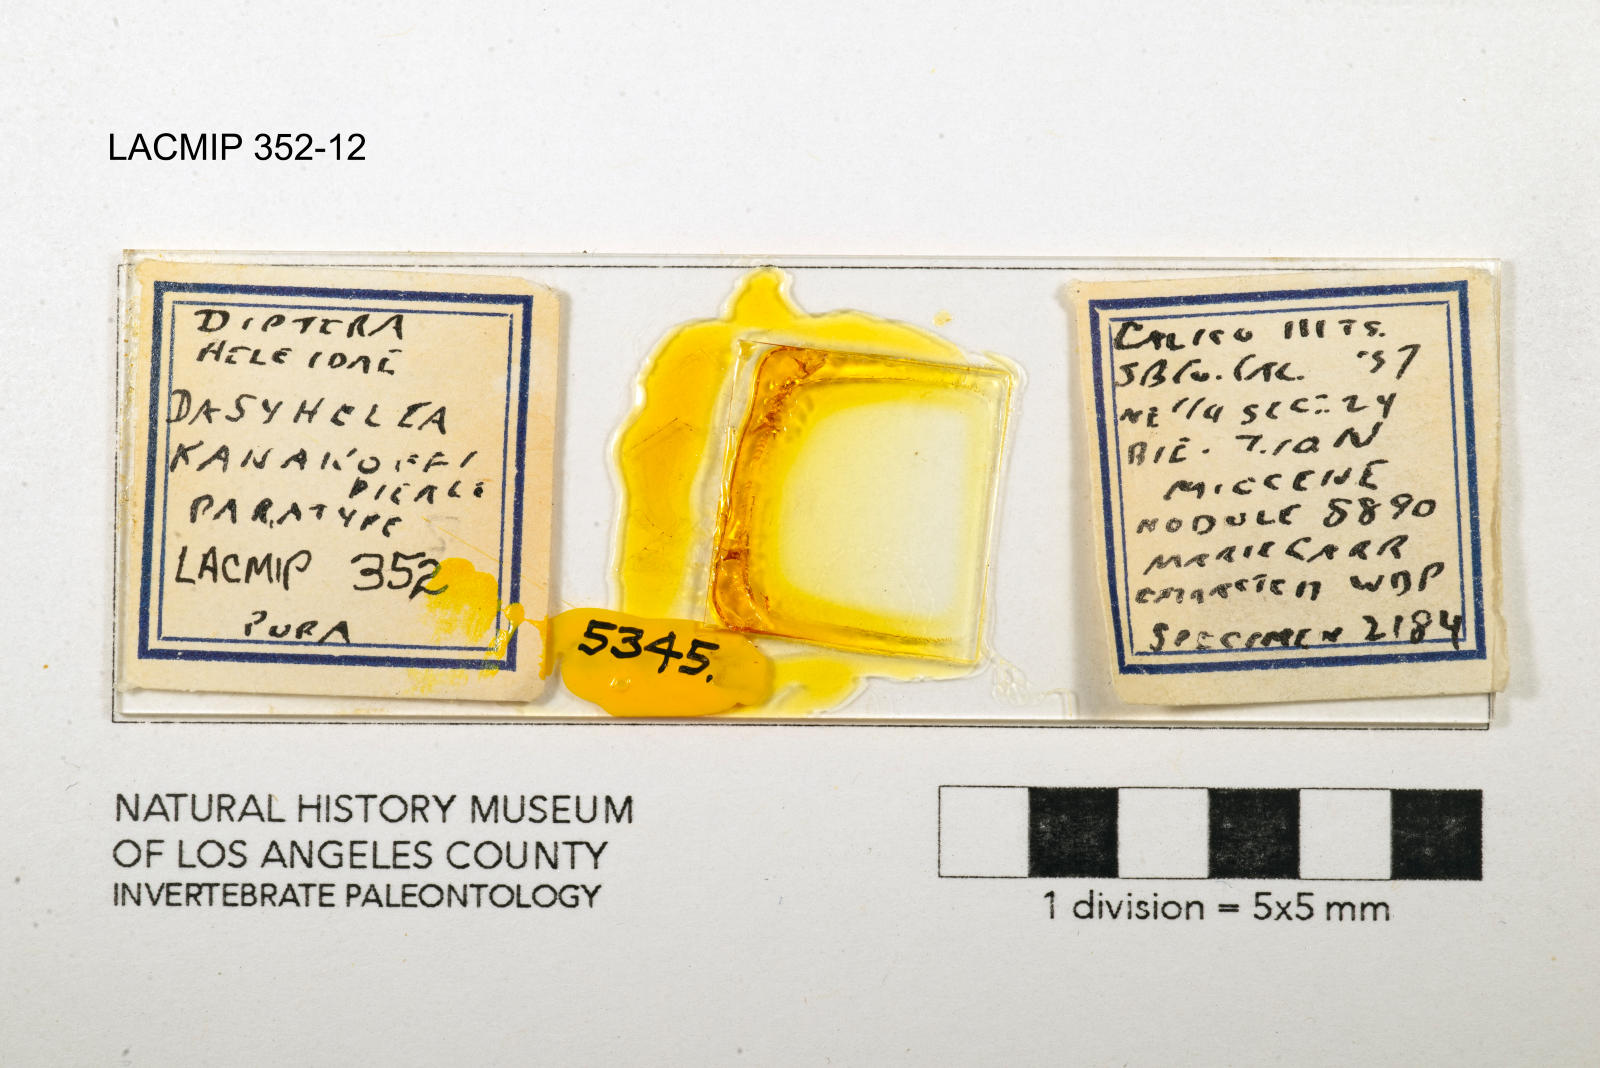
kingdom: Animalia
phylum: Arthropoda
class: Insecta
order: Diptera
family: Ceratopogonidae
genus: Dasyhelea
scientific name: Dasyhelea kanakoffi
